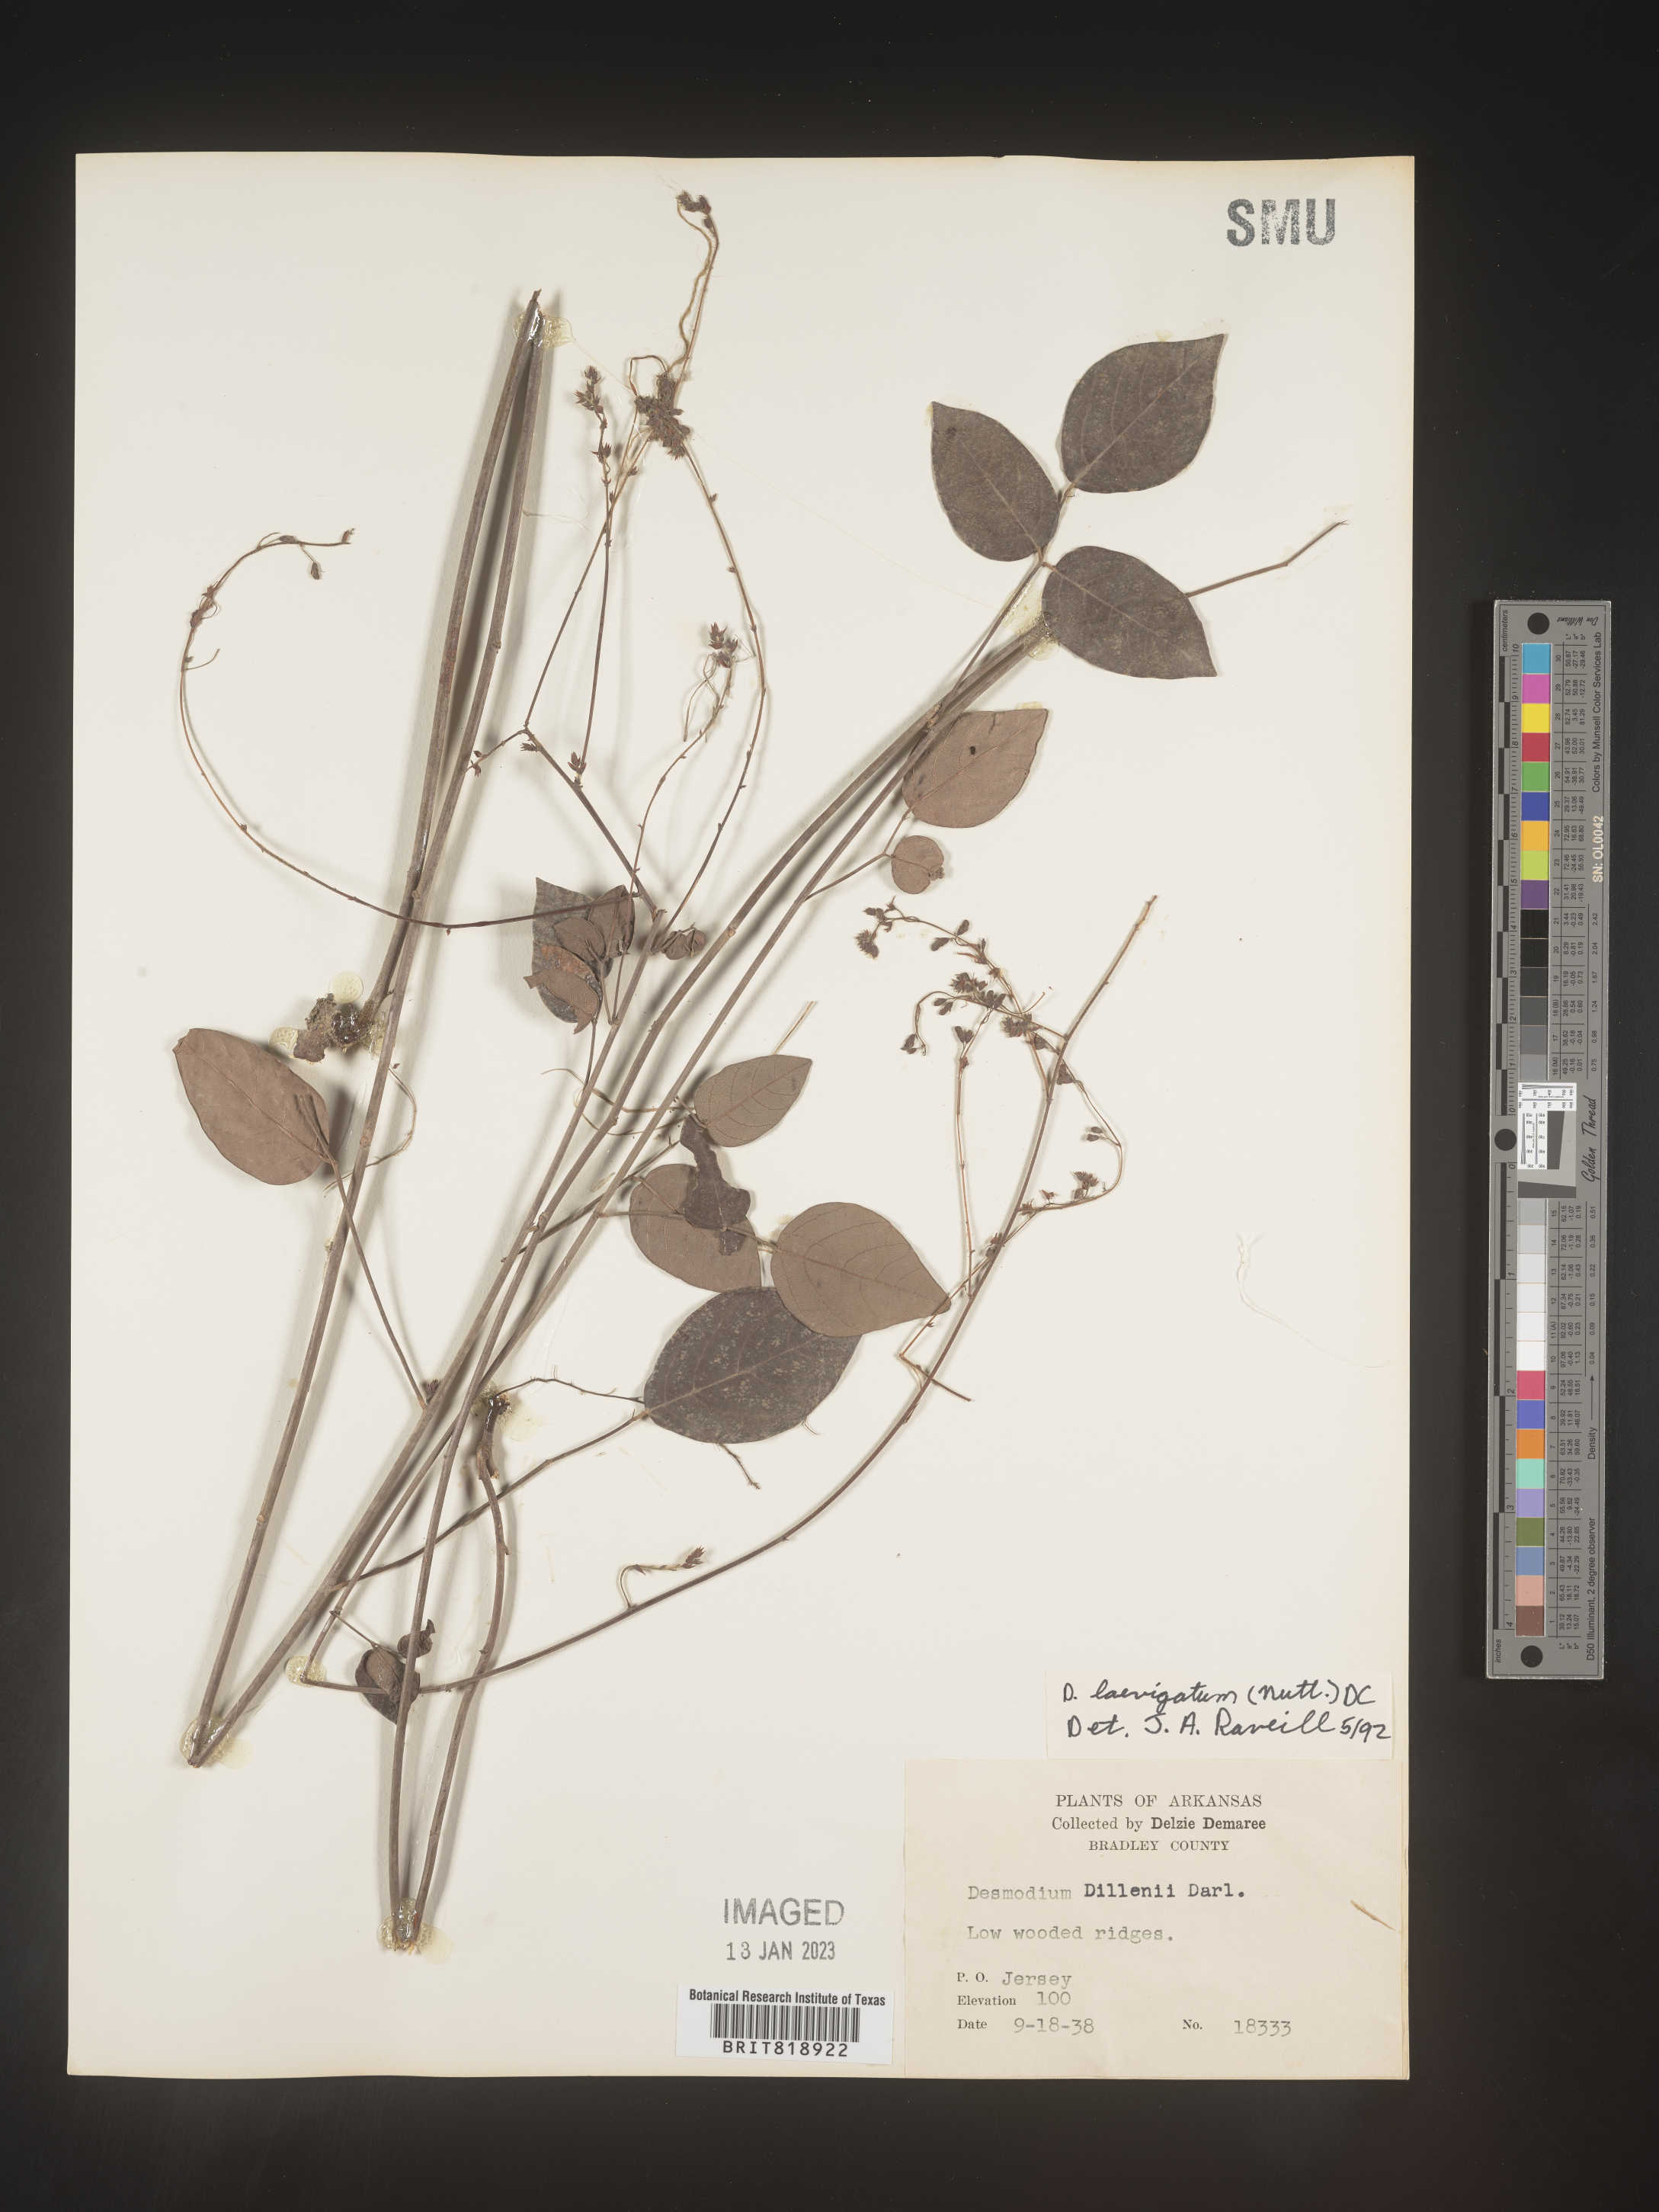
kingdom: Plantae
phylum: Tracheophyta
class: Magnoliopsida
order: Fabales
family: Fabaceae
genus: Desmodium
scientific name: Desmodium laevigatum
